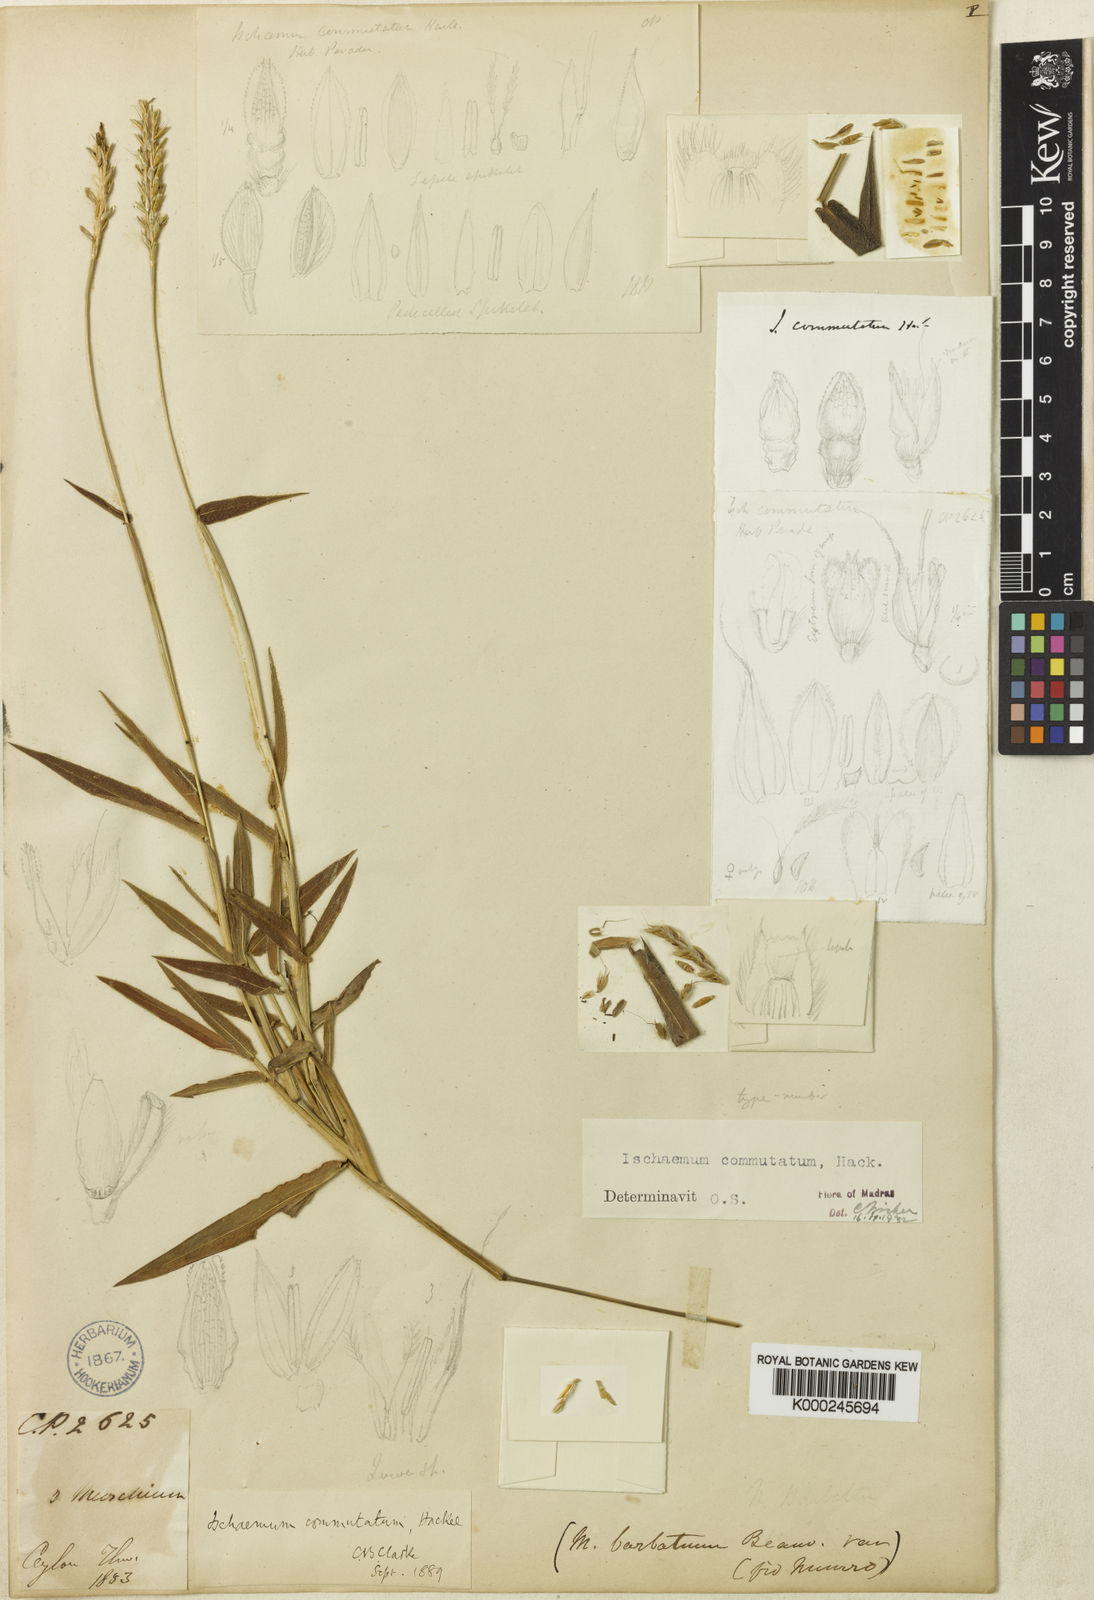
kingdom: Plantae
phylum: Tracheophyta
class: Liliopsida
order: Poales
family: Poaceae
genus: Ischaemum
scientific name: Ischaemum commutatum
